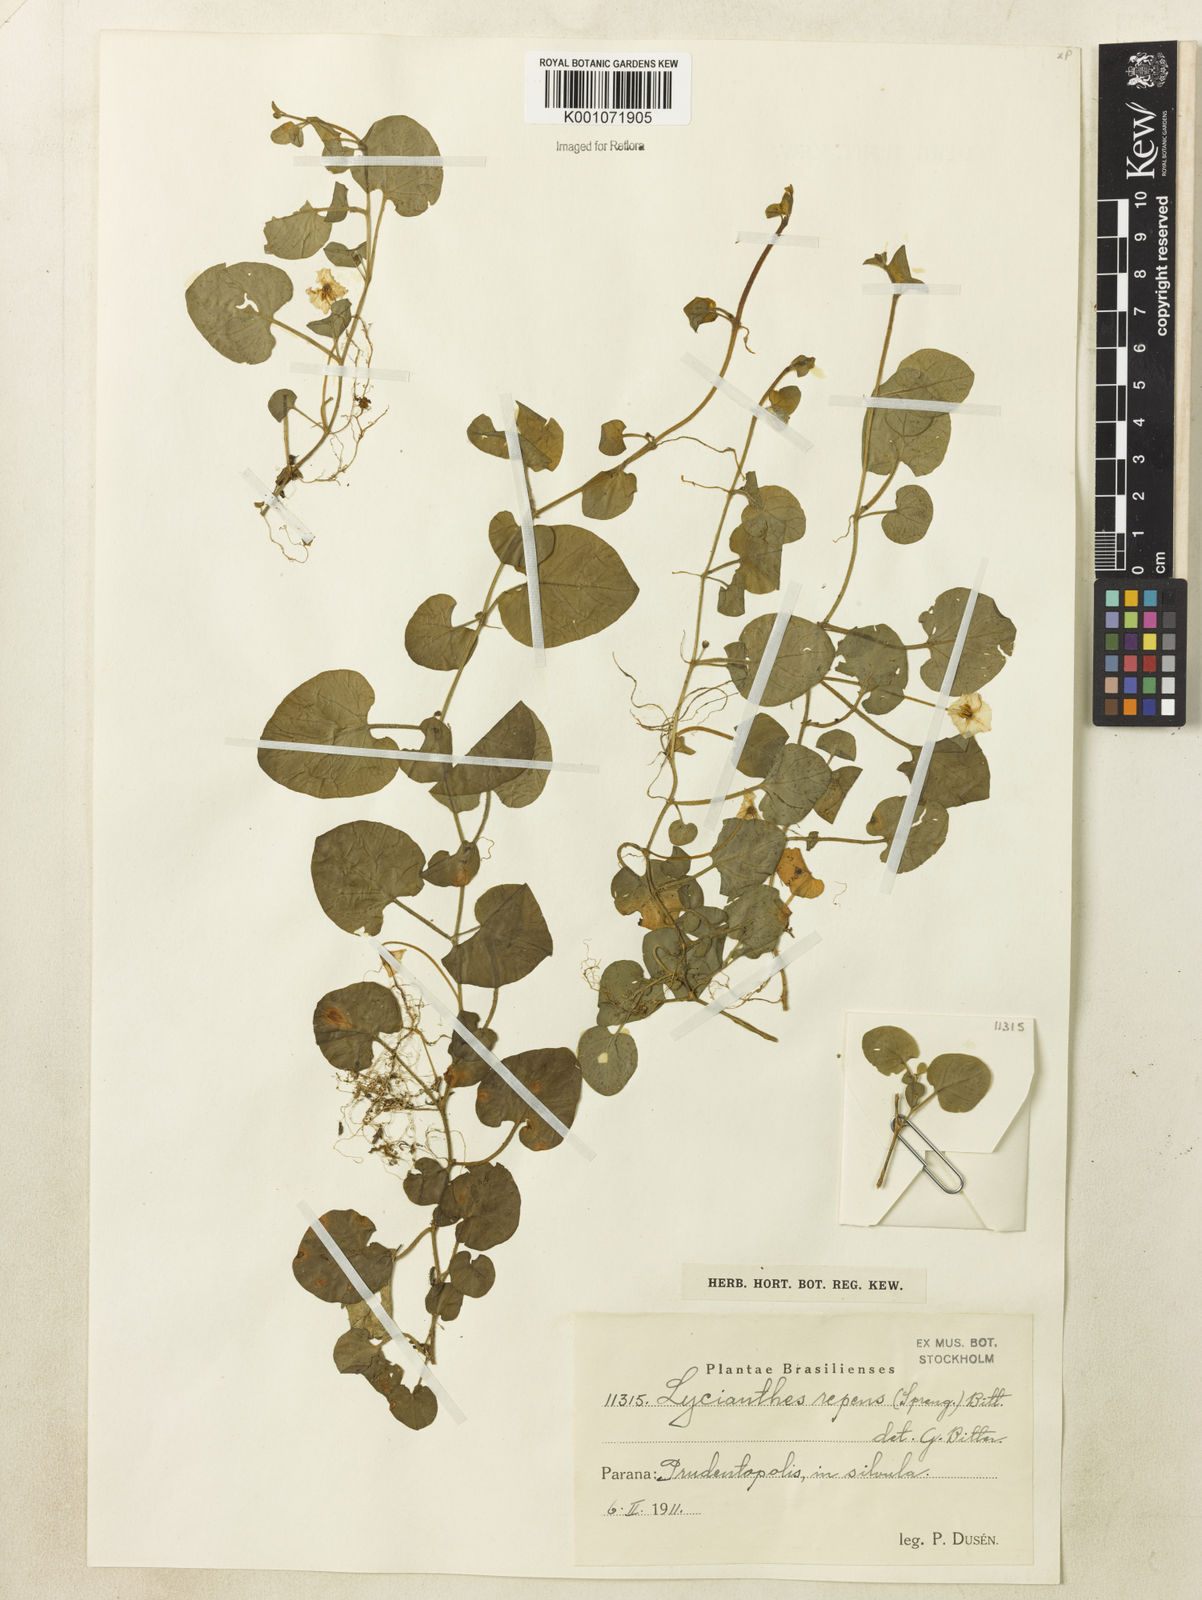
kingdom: Plantae
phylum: Tracheophyta
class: Magnoliopsida
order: Solanales
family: Solanaceae
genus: Lycianthes
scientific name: Lycianthes repens
